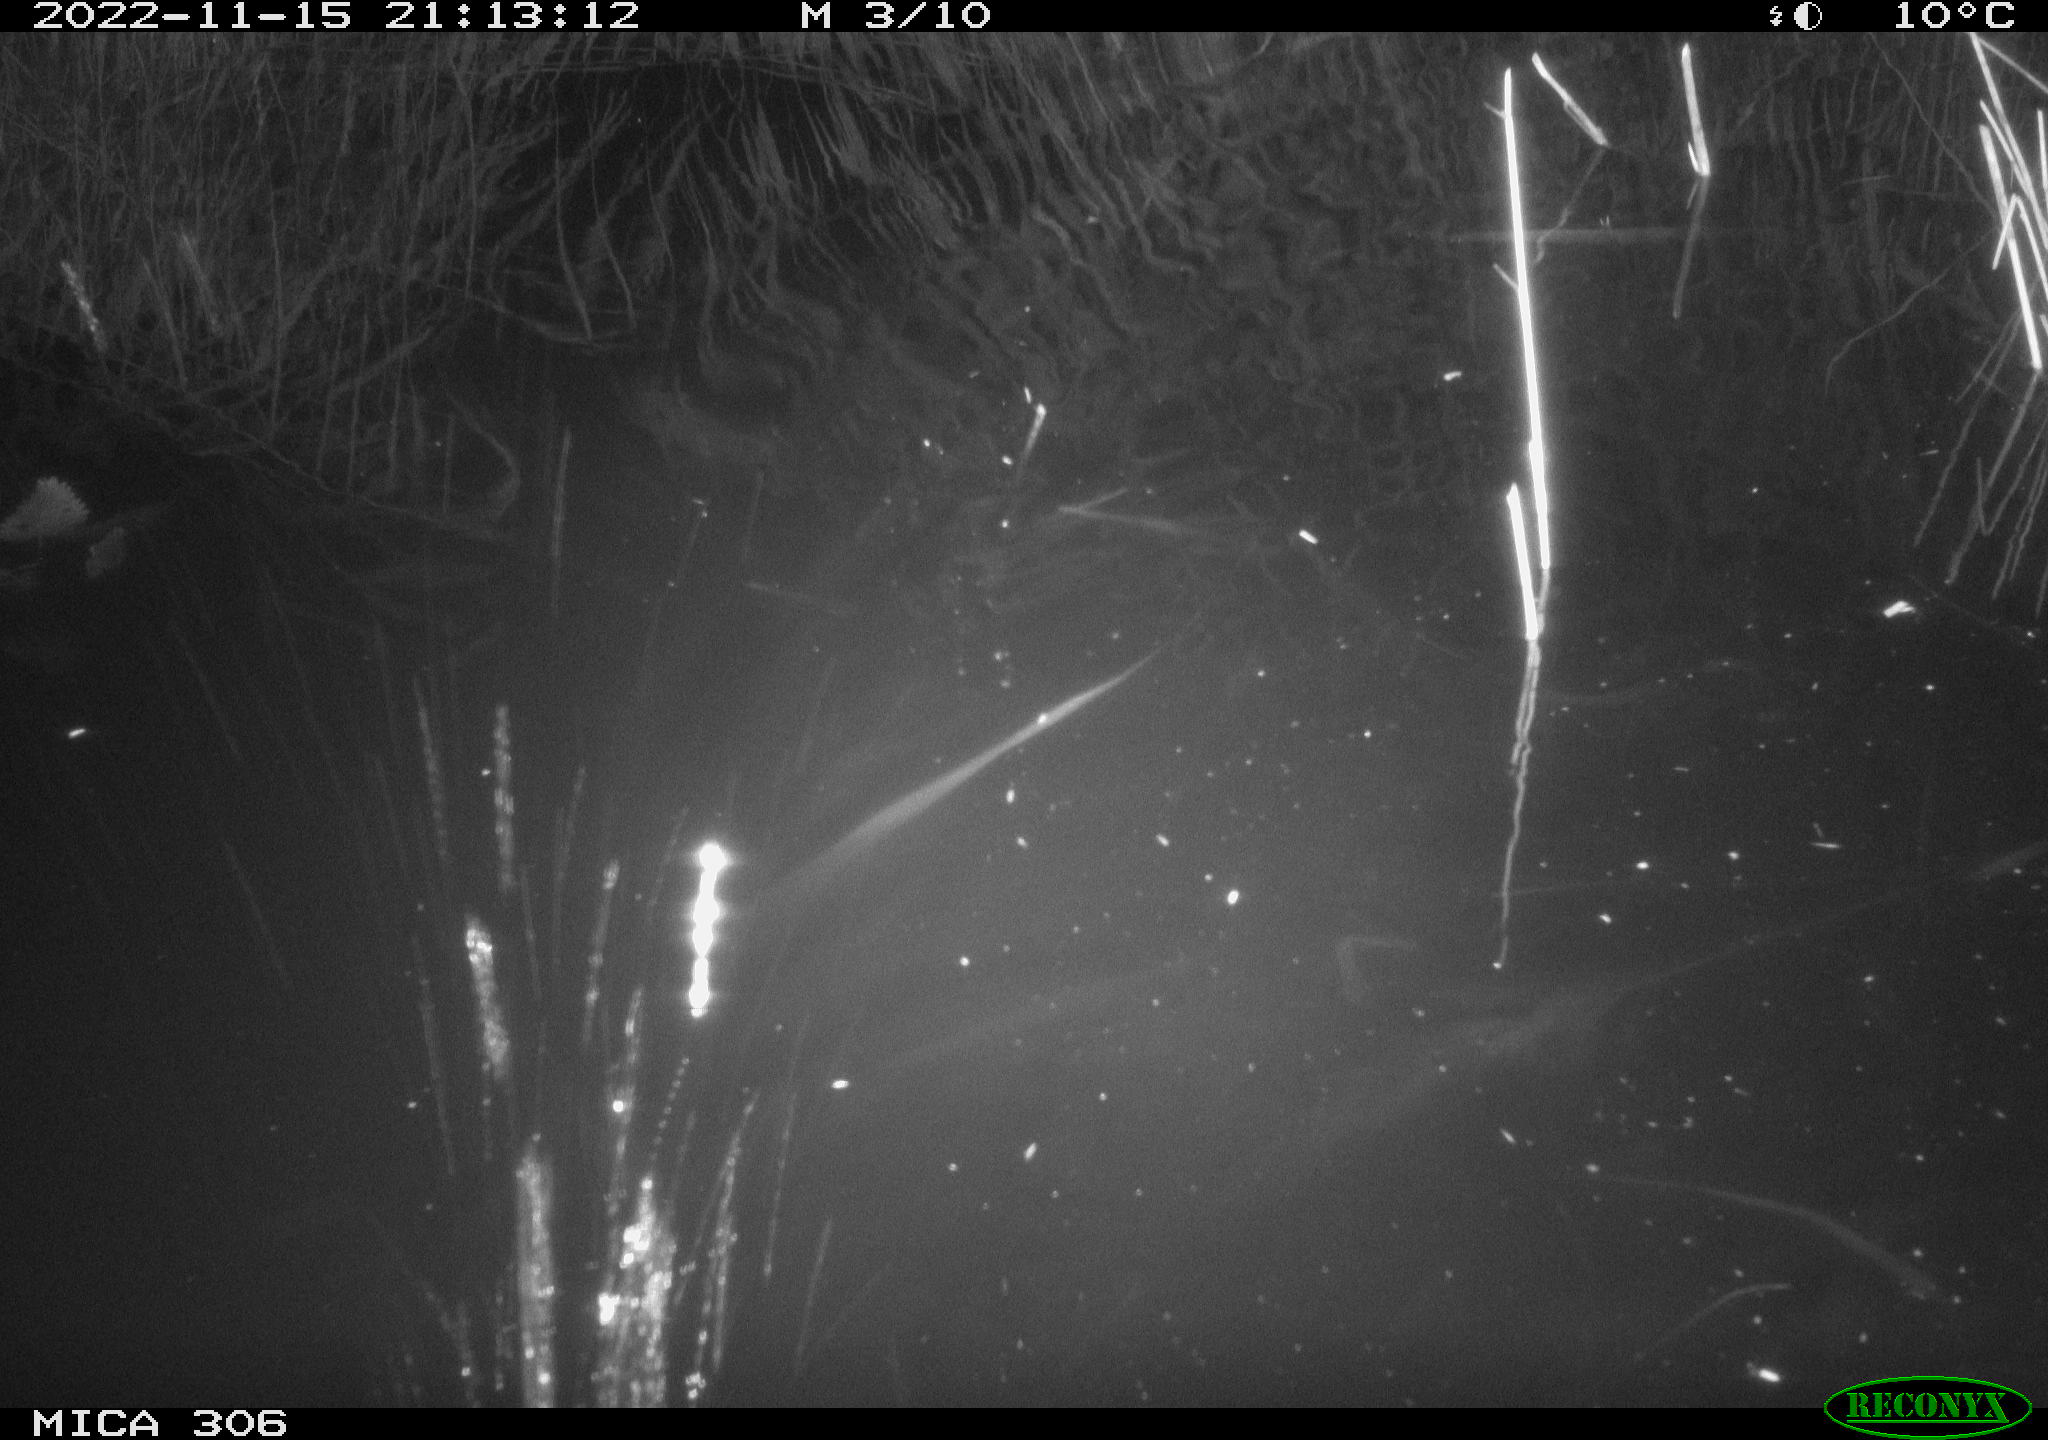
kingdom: Animalia
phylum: Chordata
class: Mammalia
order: Rodentia
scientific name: Rodentia
